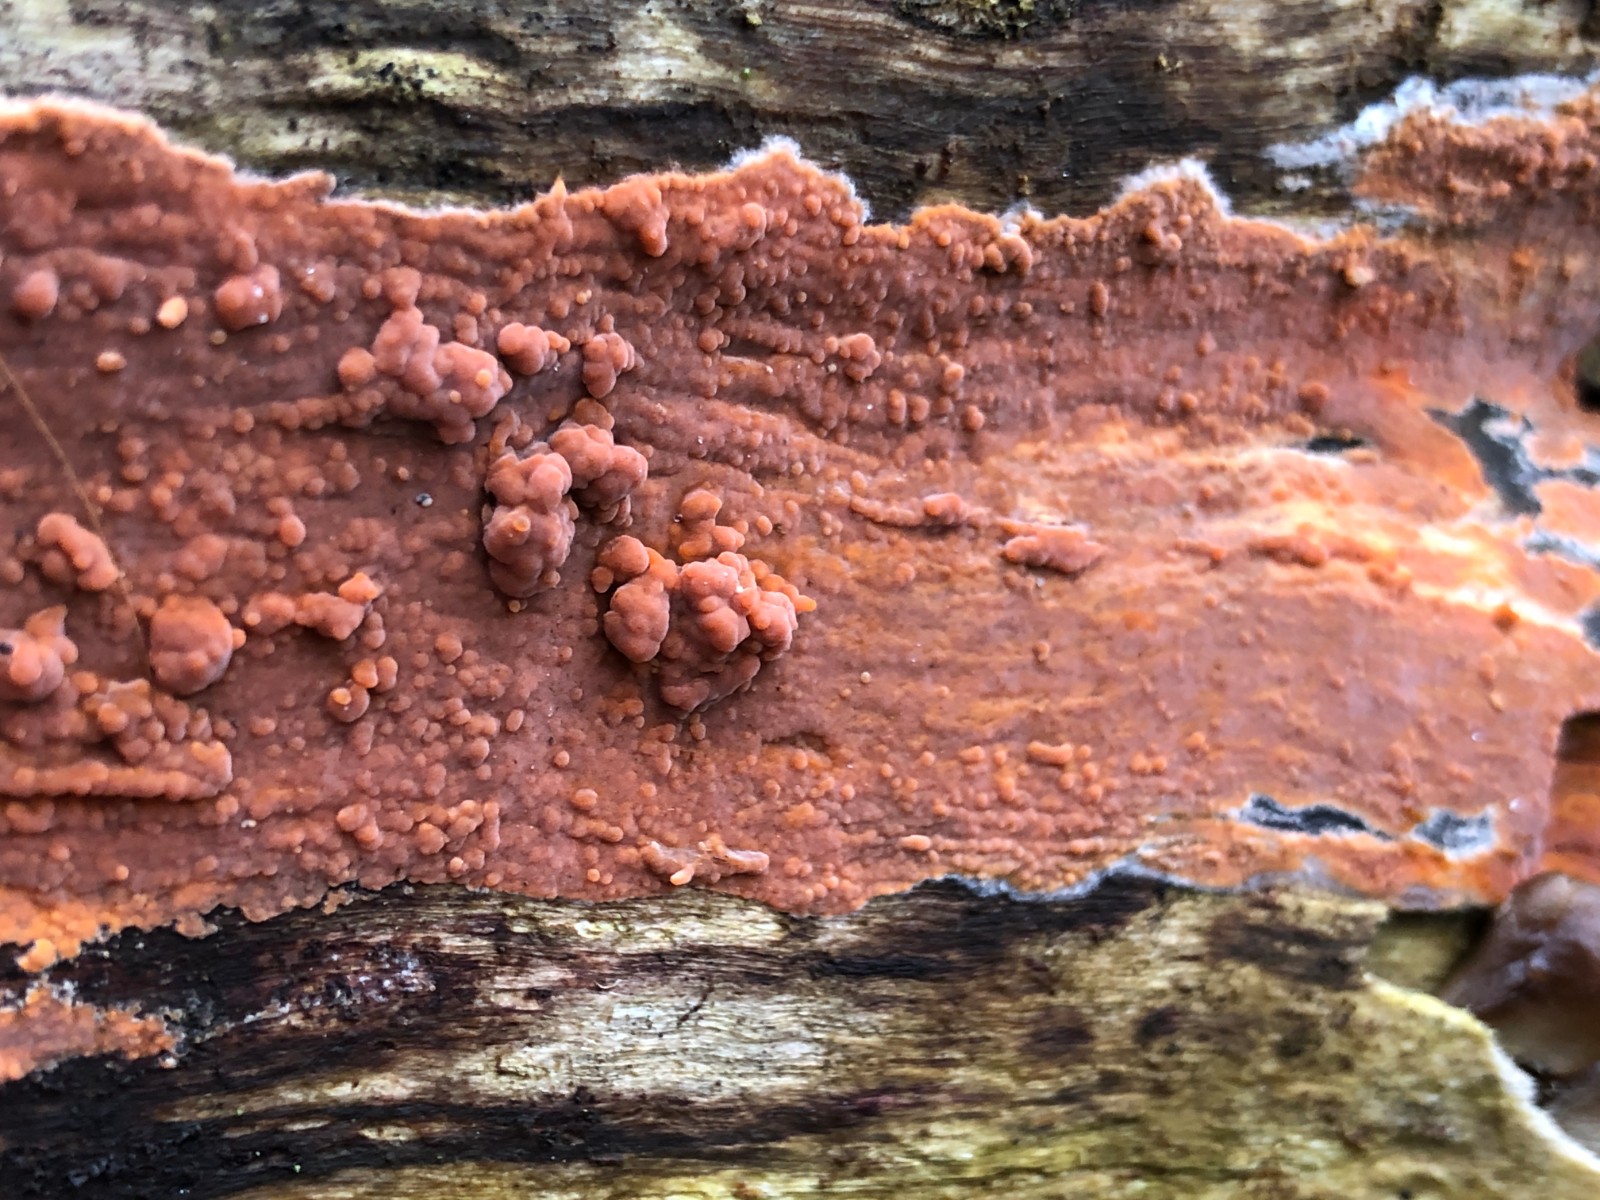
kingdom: Fungi
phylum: Basidiomycota
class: Agaricomycetes
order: Russulales
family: Peniophoraceae
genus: Peniophora
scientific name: Peniophora incarnata
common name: laksefarvet voksskind
